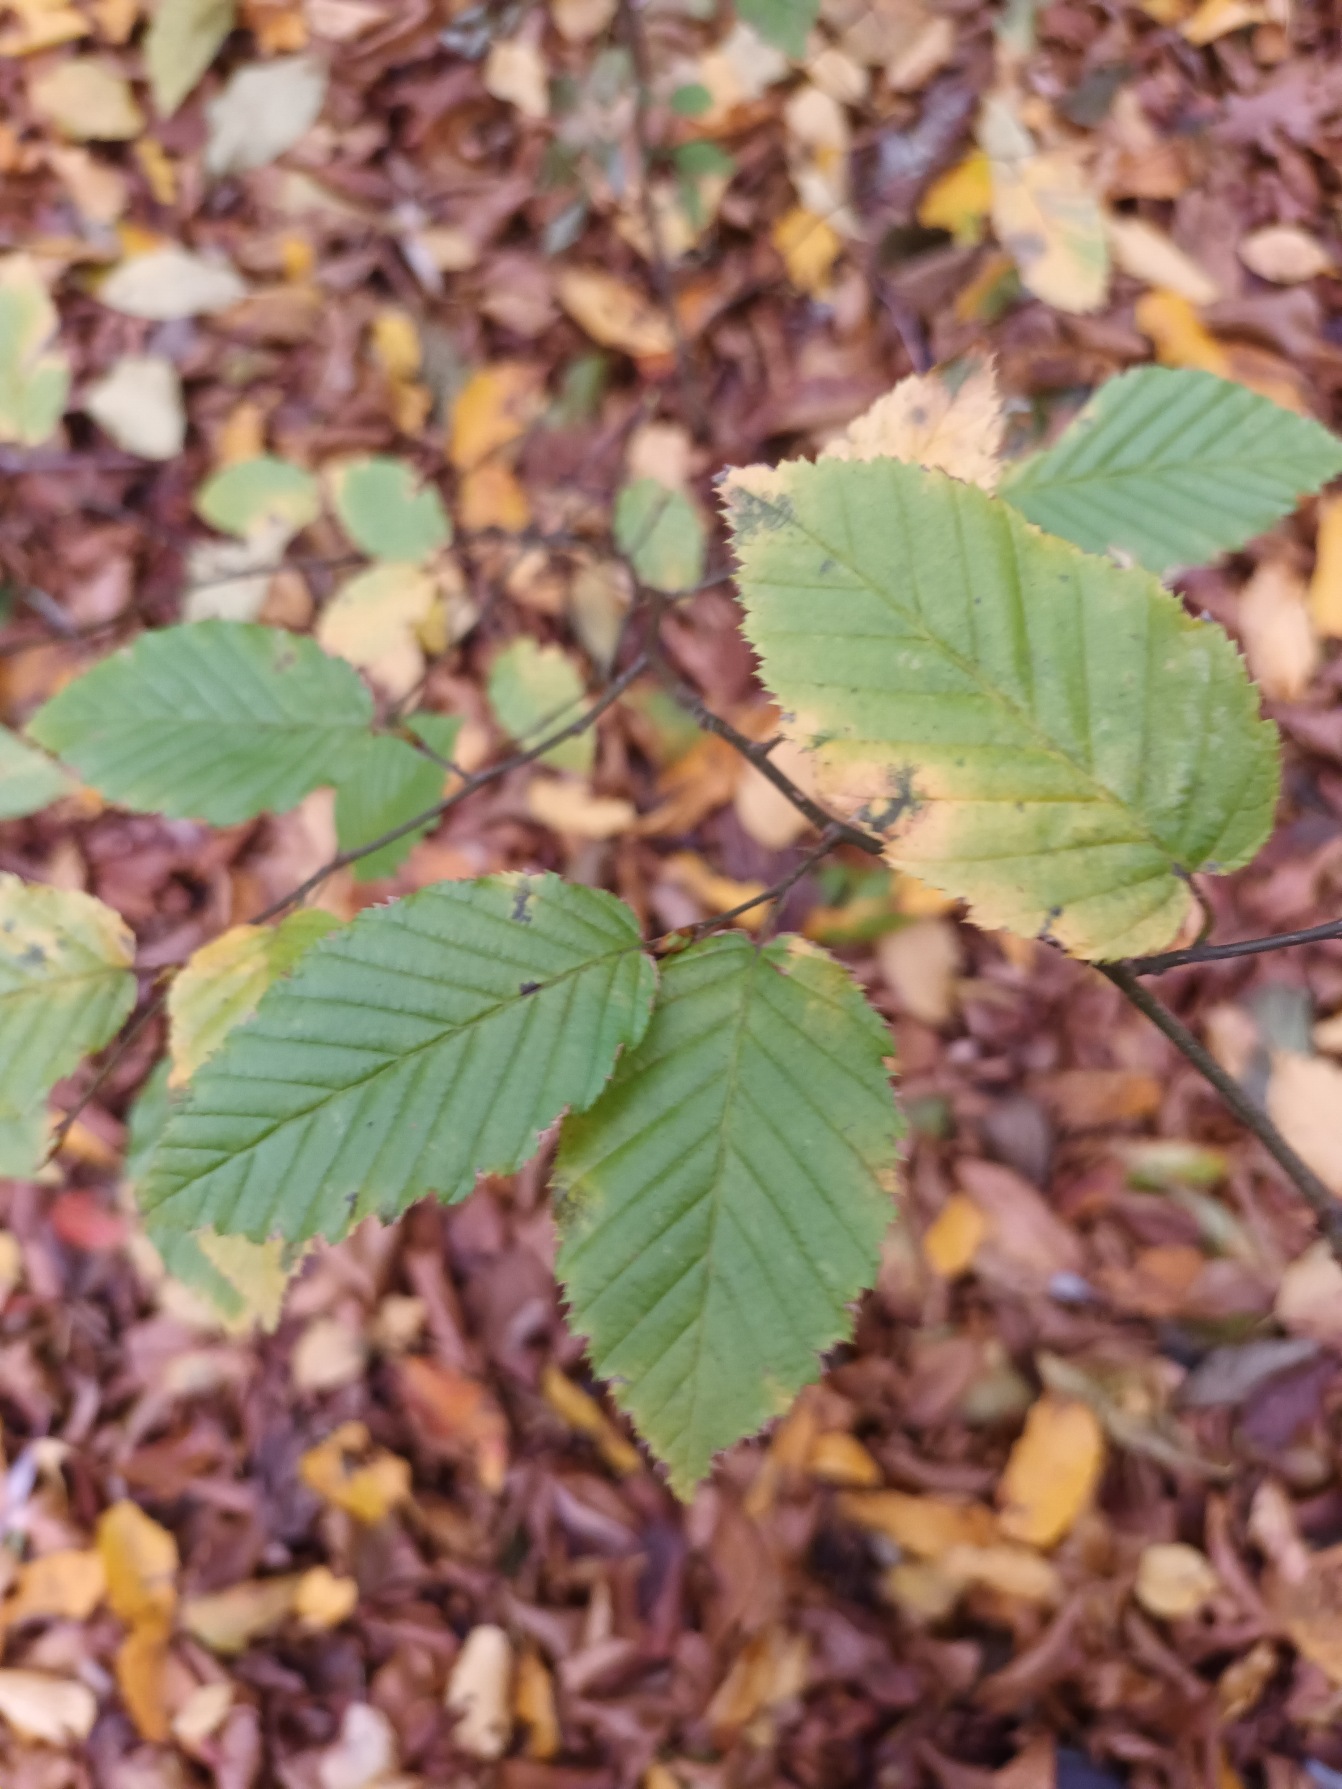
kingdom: Plantae
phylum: Tracheophyta
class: Magnoliopsida
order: Fagales
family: Betulaceae
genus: Carpinus
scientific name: Carpinus betulus
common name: Avnbøg
